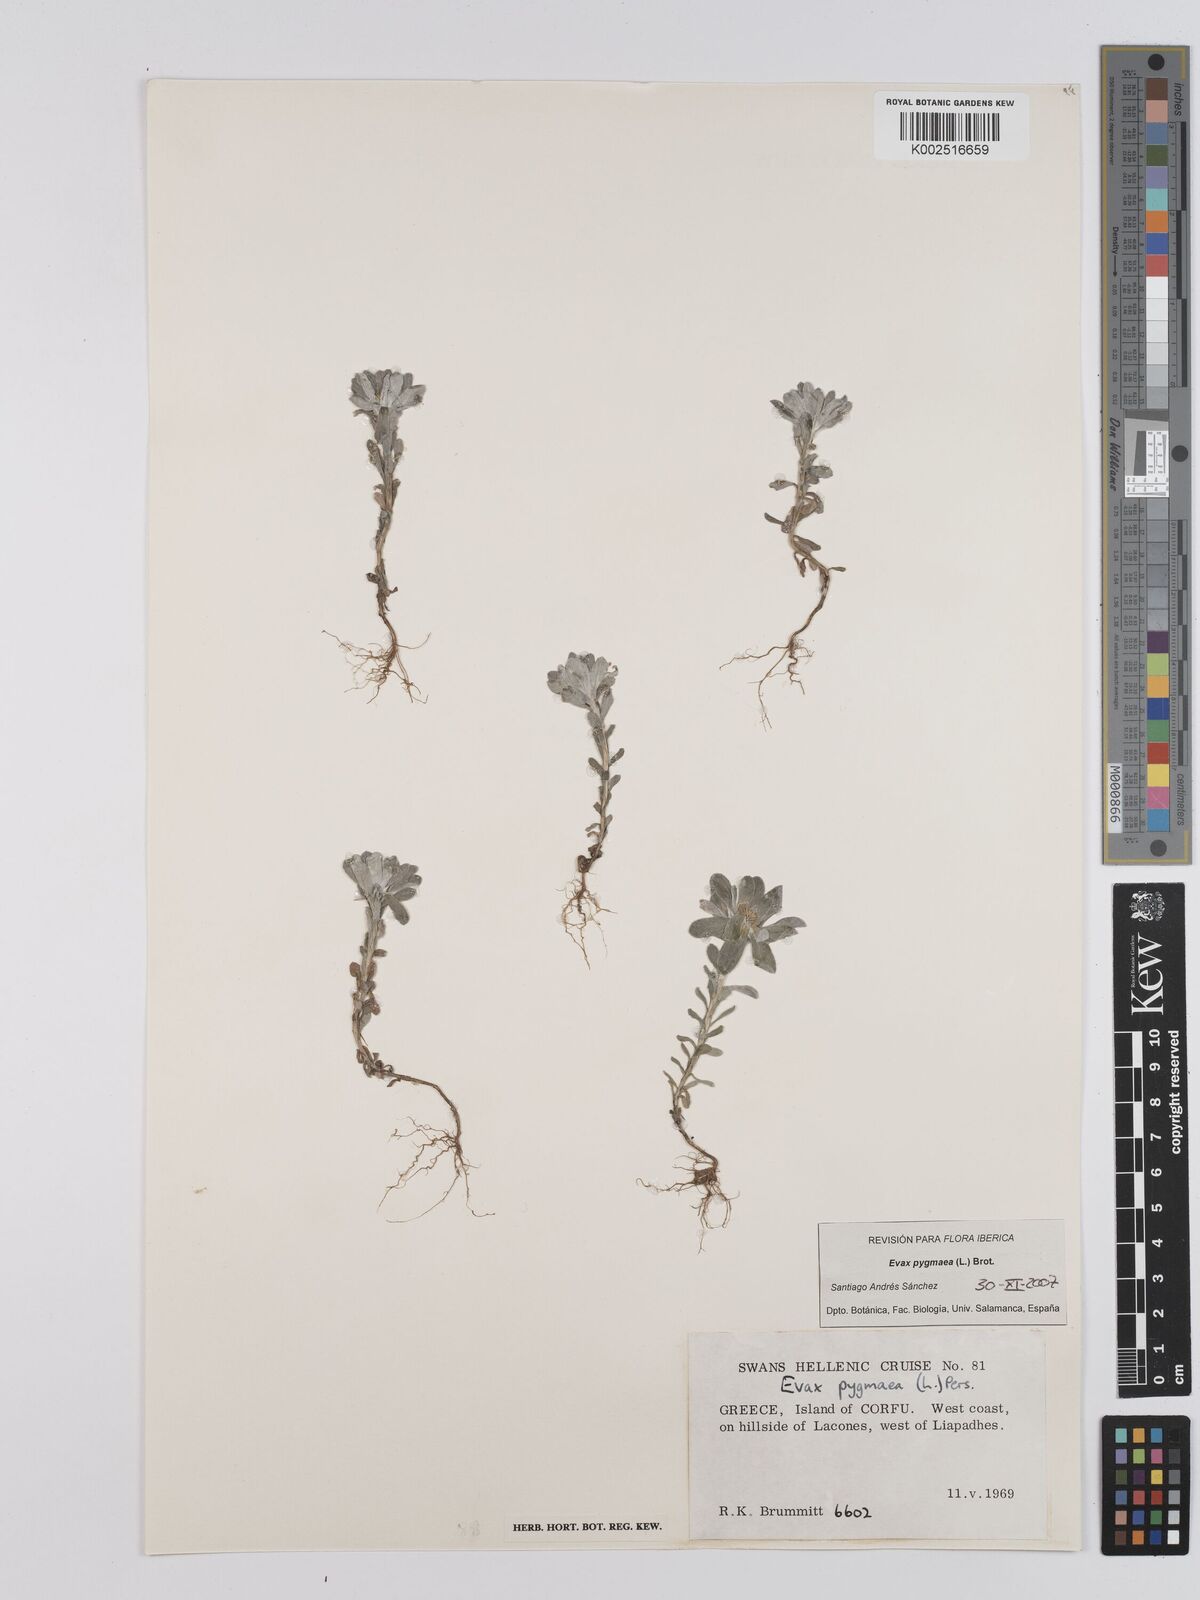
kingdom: Plantae
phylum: Tracheophyta
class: Magnoliopsida
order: Asterales
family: Asteraceae
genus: Filago
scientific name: Filago pygmaea
